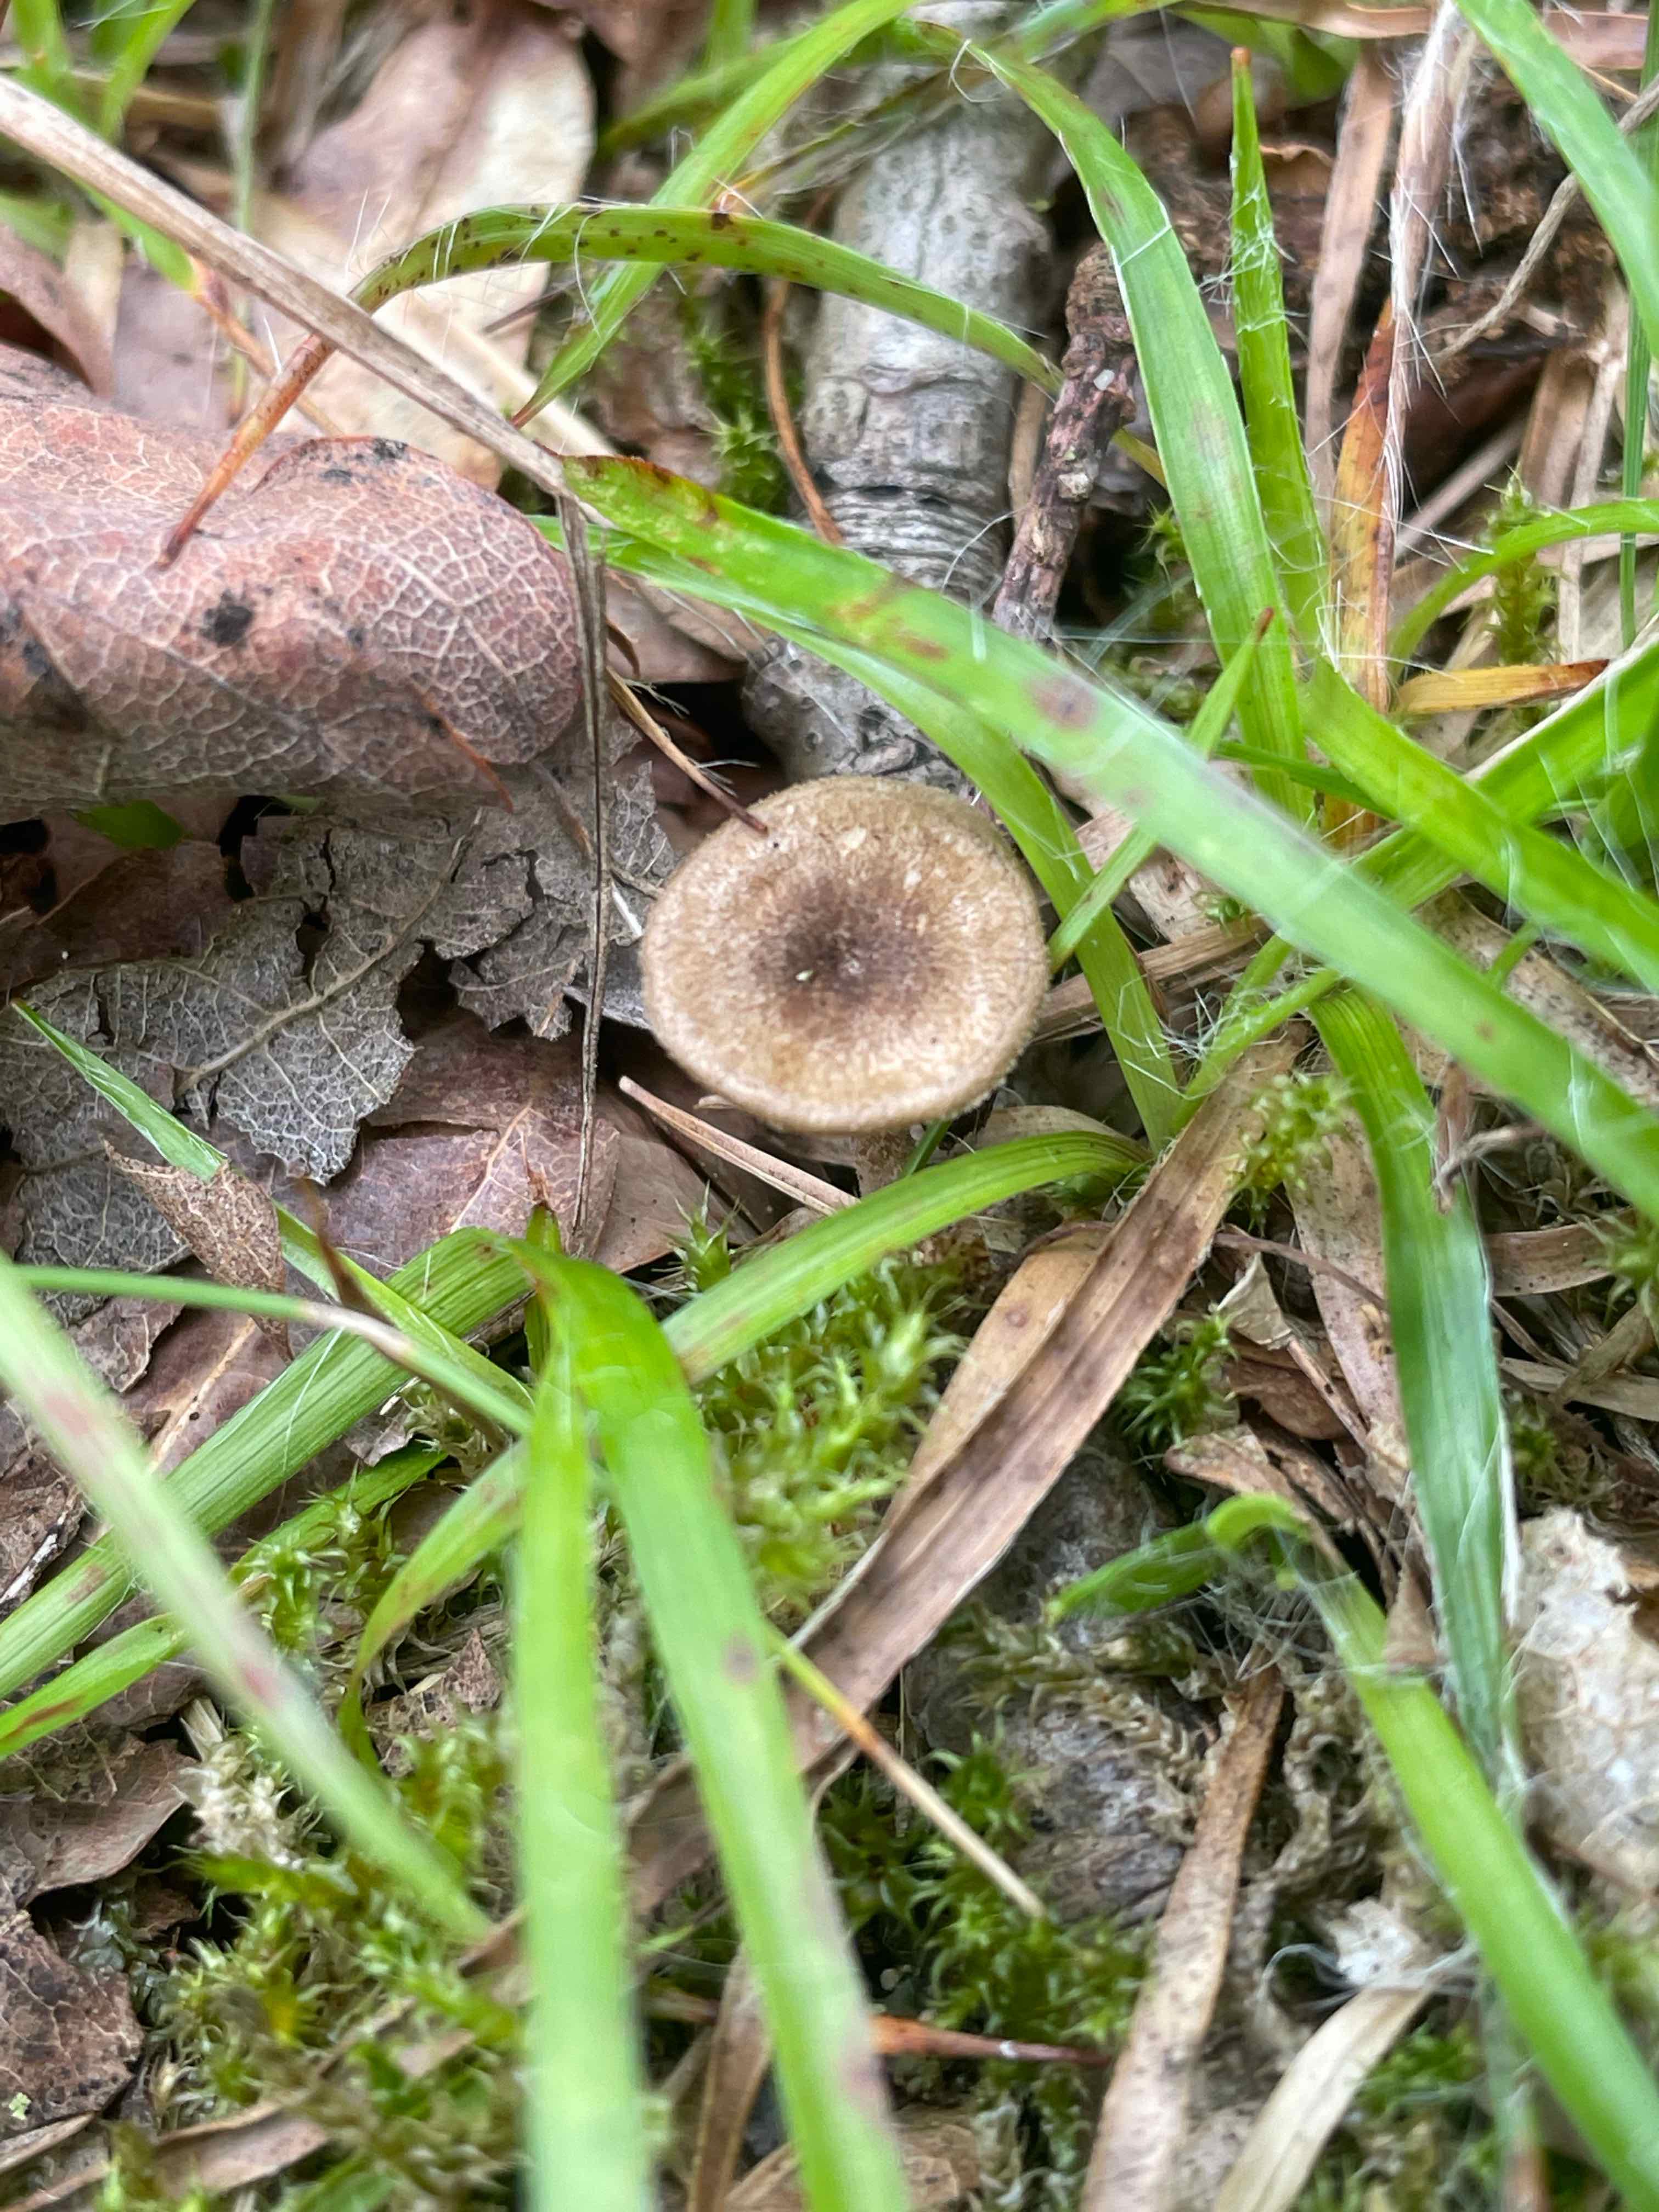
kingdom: Fungi
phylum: Basidiomycota
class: Agaricomycetes
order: Polyporales
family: Polyporaceae
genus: Lentinus
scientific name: Lentinus substrictus
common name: forårs-stilkporesvamp
